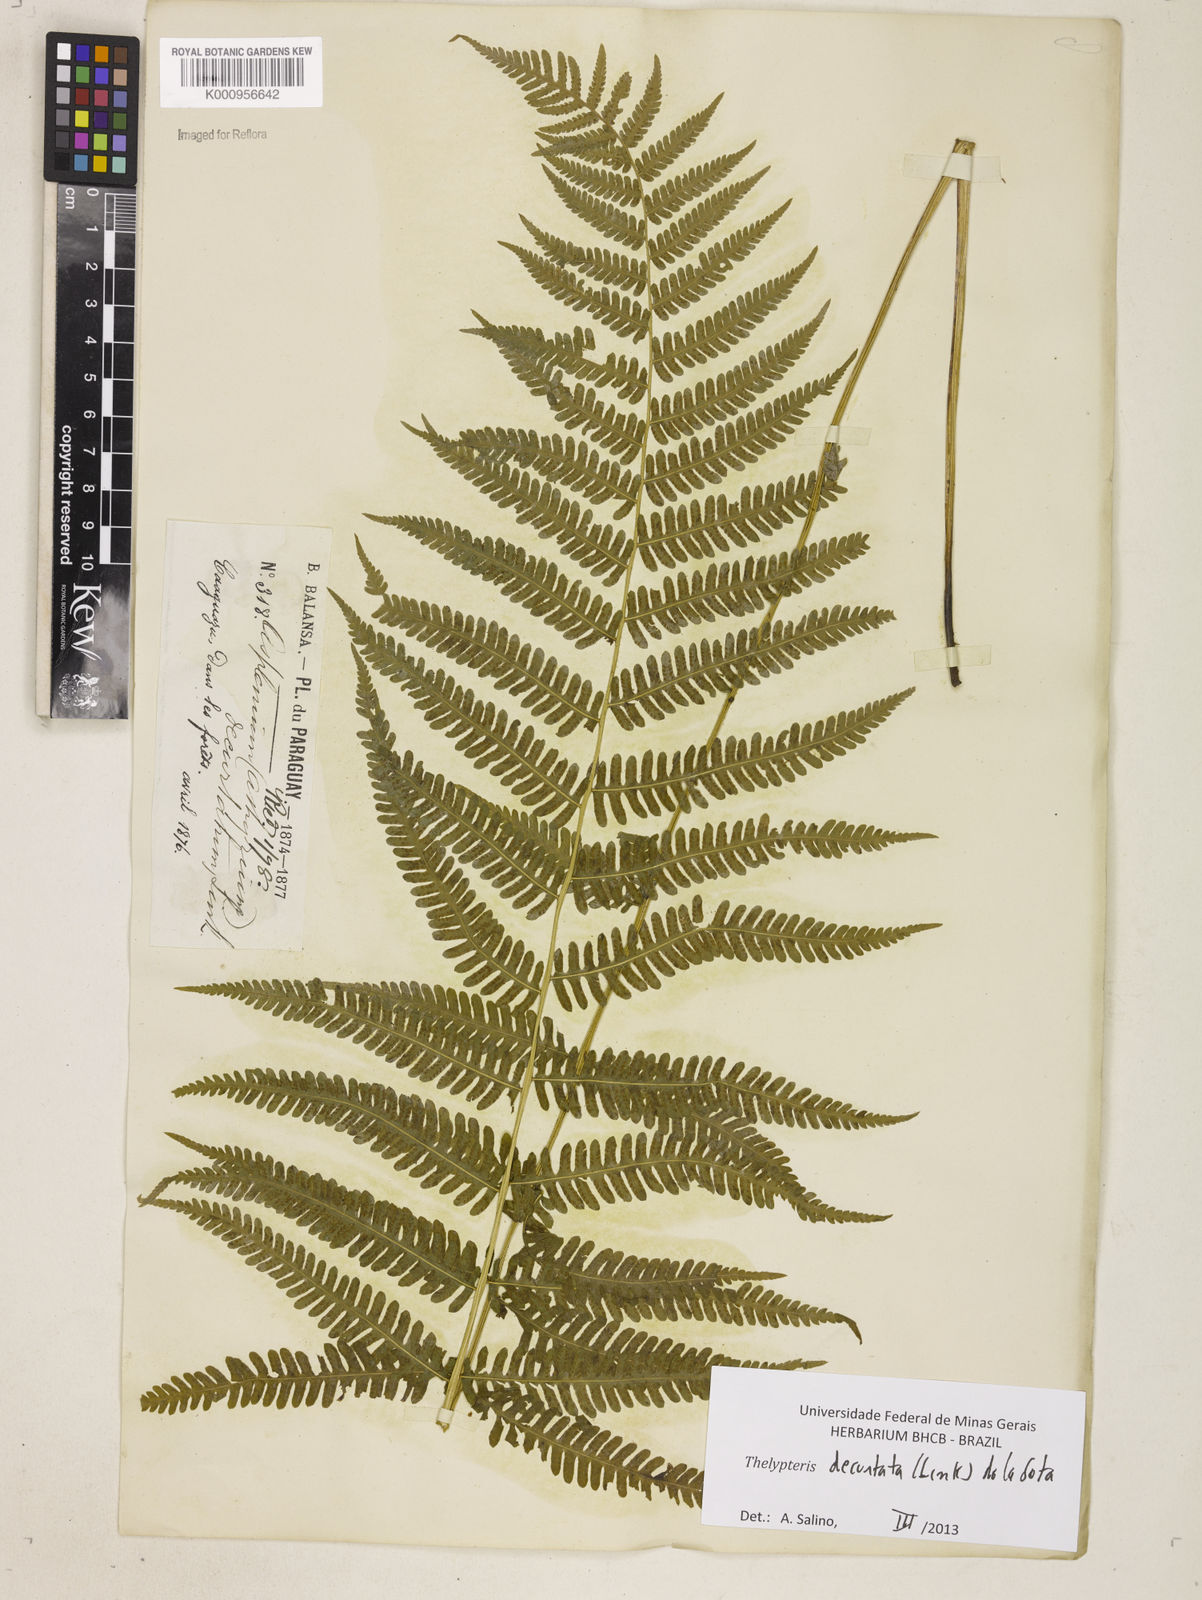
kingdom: Plantae
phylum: Tracheophyta
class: Polypodiopsida
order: Polypodiales
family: Thelypteridaceae
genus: Amauropelta
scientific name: Amauropelta decurtata
